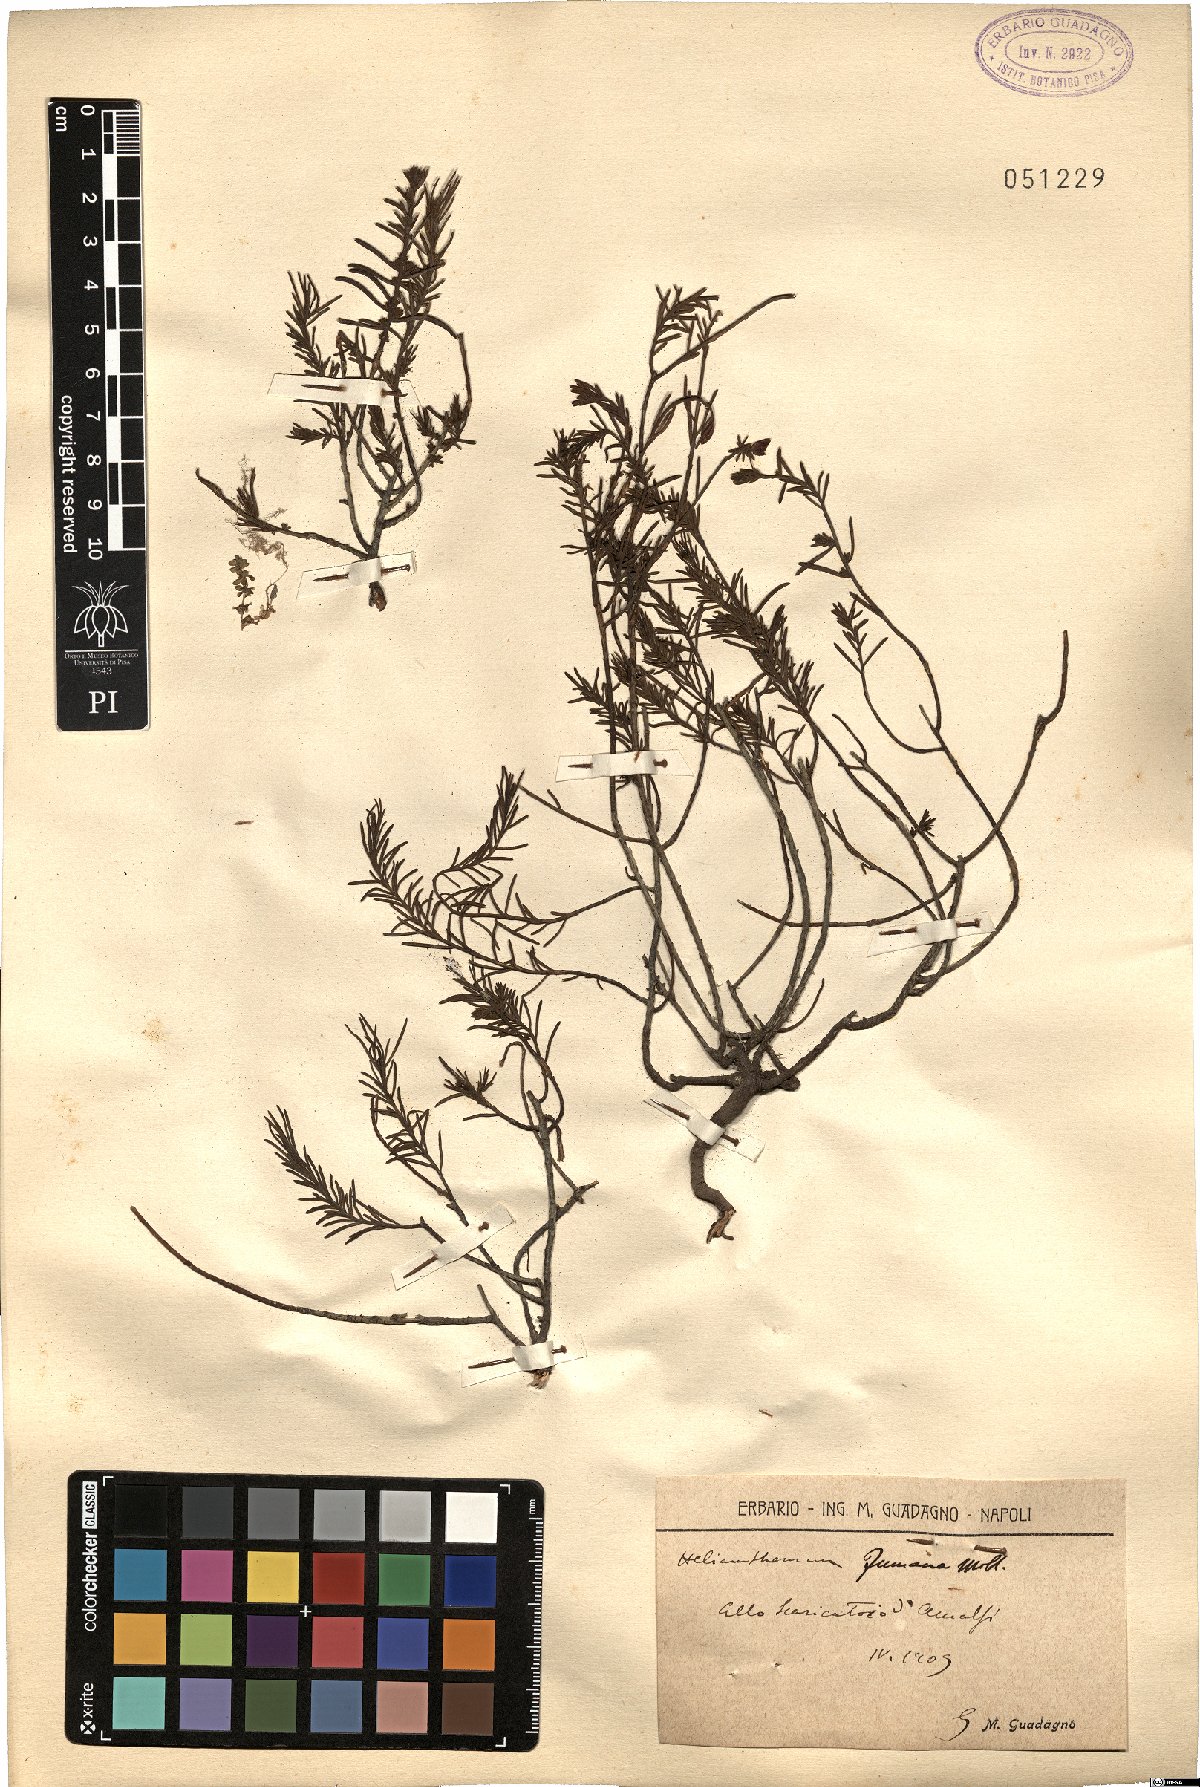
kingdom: Plantae
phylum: Tracheophyta
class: Magnoliopsida
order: Malvales
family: Cistaceae
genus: Fumana
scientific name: Fumana procumbens
